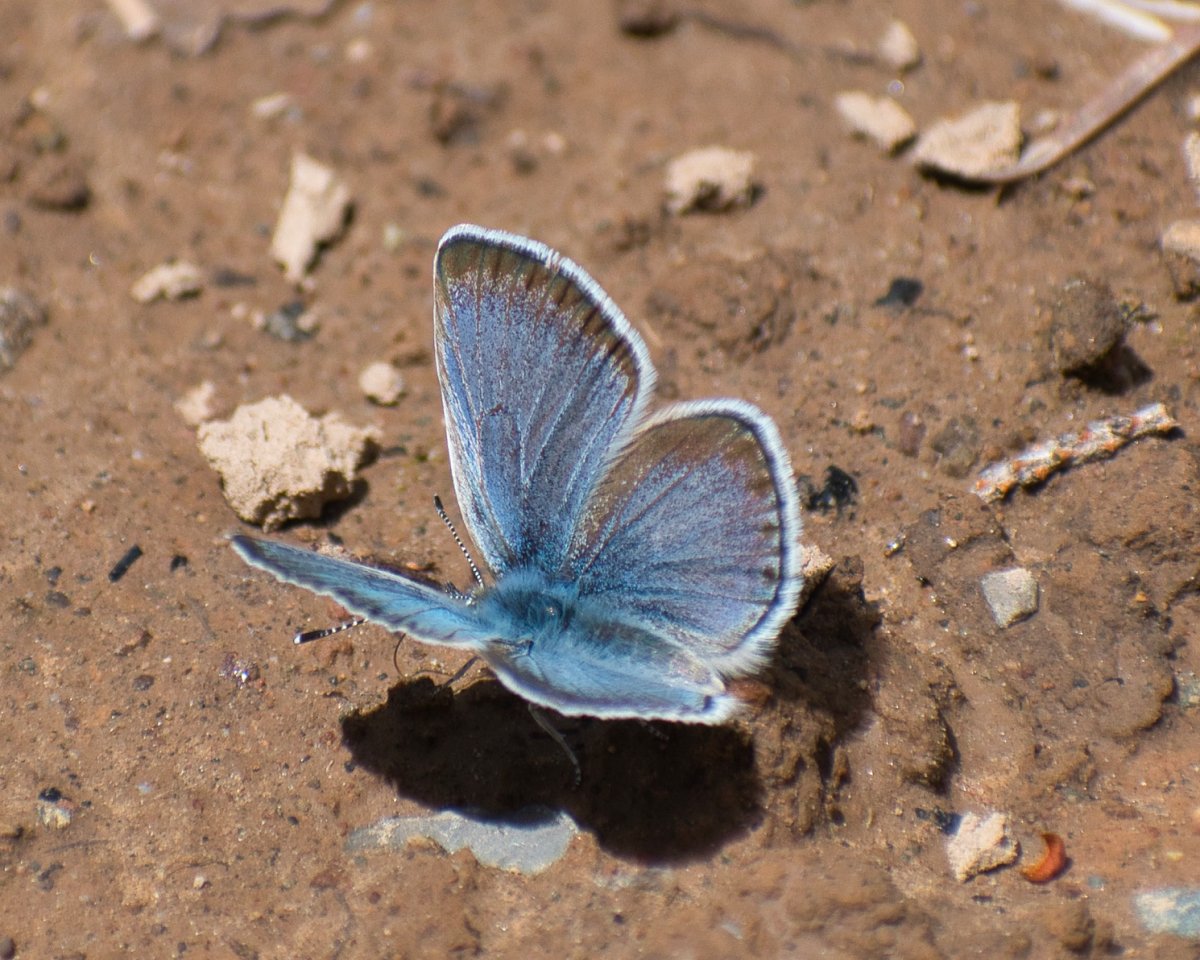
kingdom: Animalia
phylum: Arthropoda
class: Insecta
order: Lepidoptera
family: Lycaenidae
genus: Icaricia
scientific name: Icaricia icarioides
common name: Boisduval's Blue
